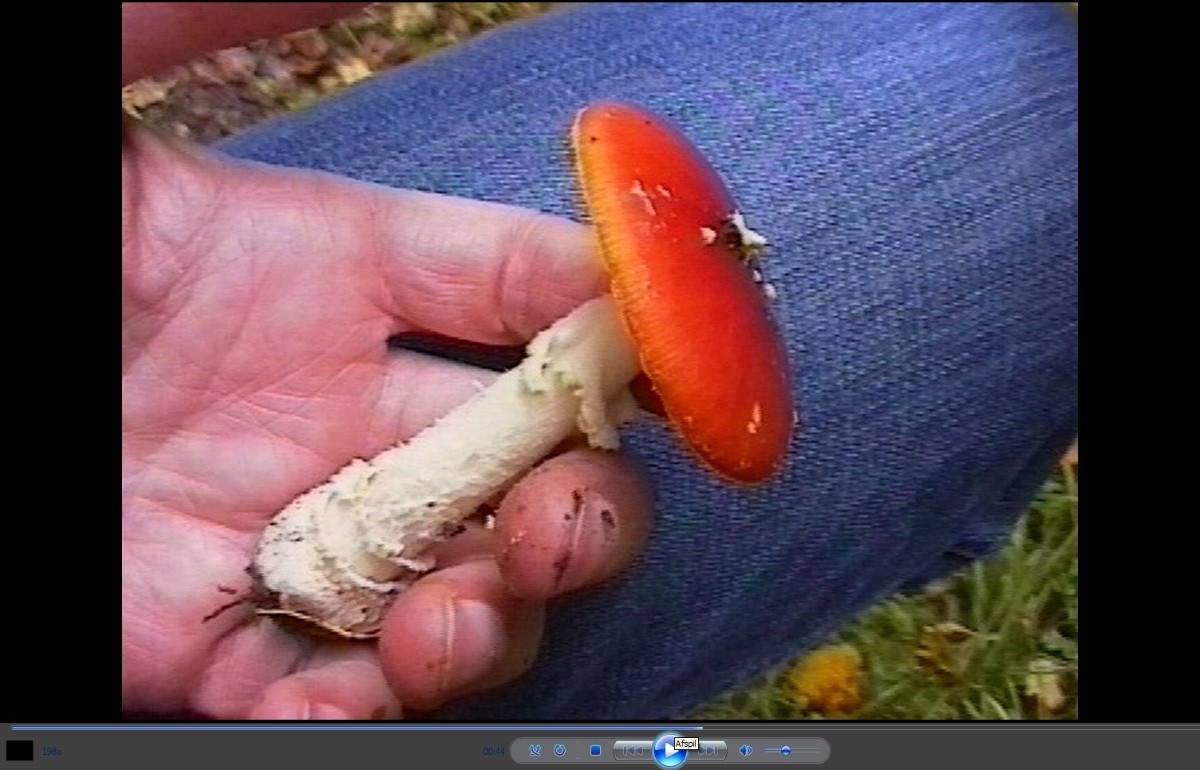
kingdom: Fungi
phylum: Basidiomycota
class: Agaricomycetes
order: Agaricales
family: Amanitaceae
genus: Amanita
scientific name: Amanita muscaria
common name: rød fluesvamp
